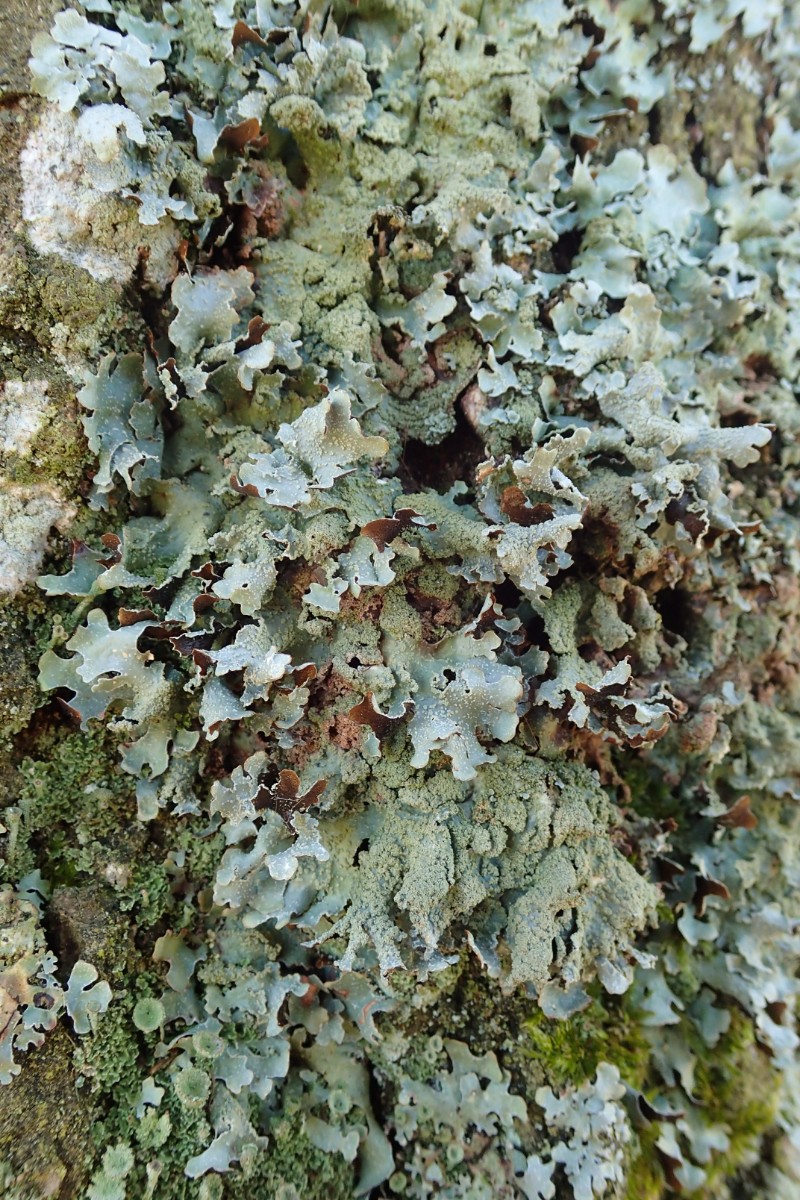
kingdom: Fungi
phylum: Ascomycota
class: Lecanoromycetes
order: Lecanorales
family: Parmeliaceae
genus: Parmelia
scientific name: Parmelia submontana
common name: langlobet skållav
